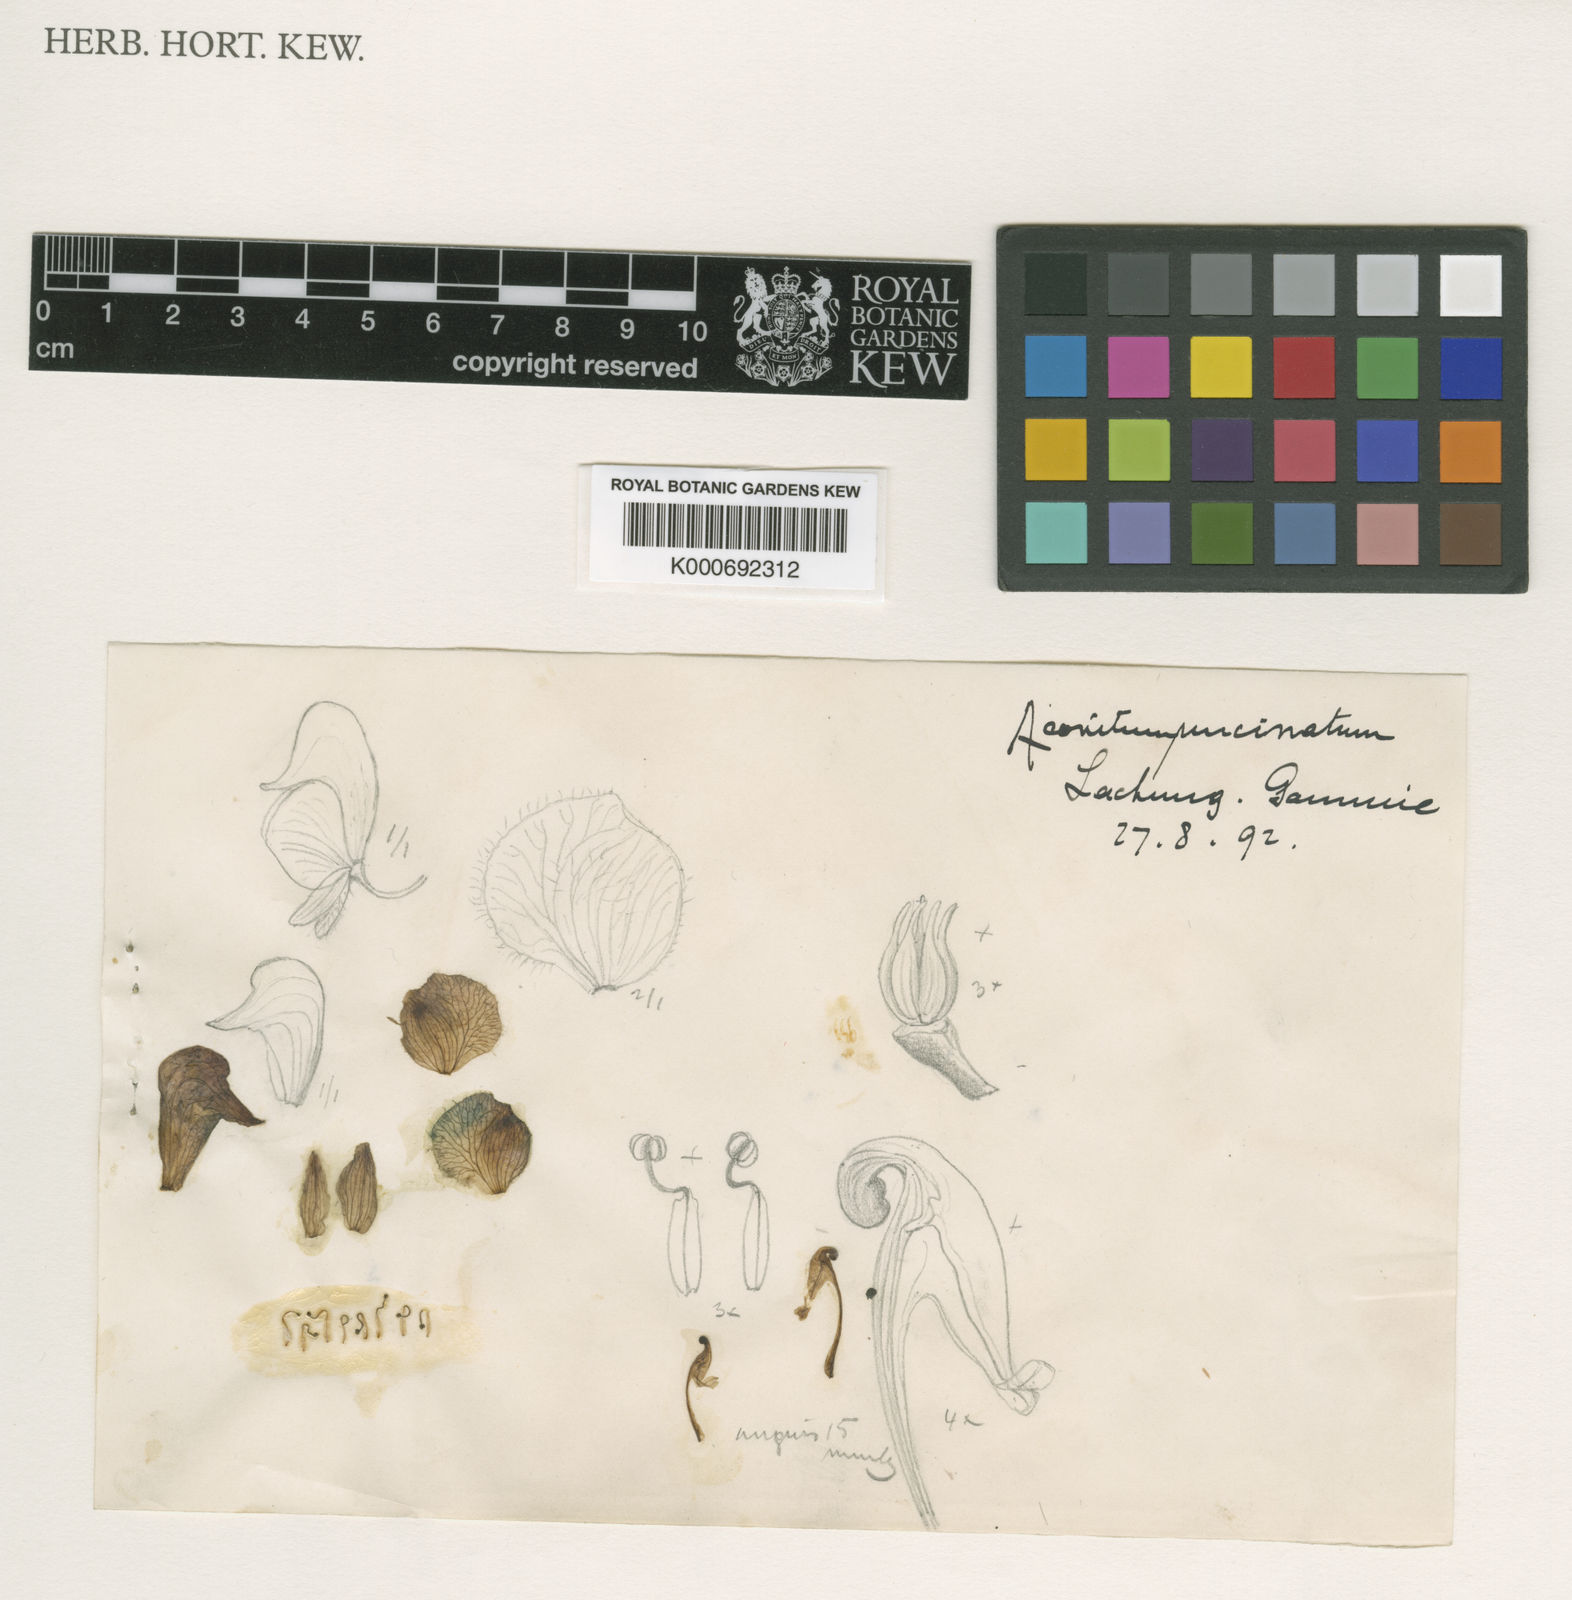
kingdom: Plantae
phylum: Tracheophyta
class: Magnoliopsida
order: Ranunculales
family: Ranunculaceae
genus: Aconitum
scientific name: Aconitum elwesii
